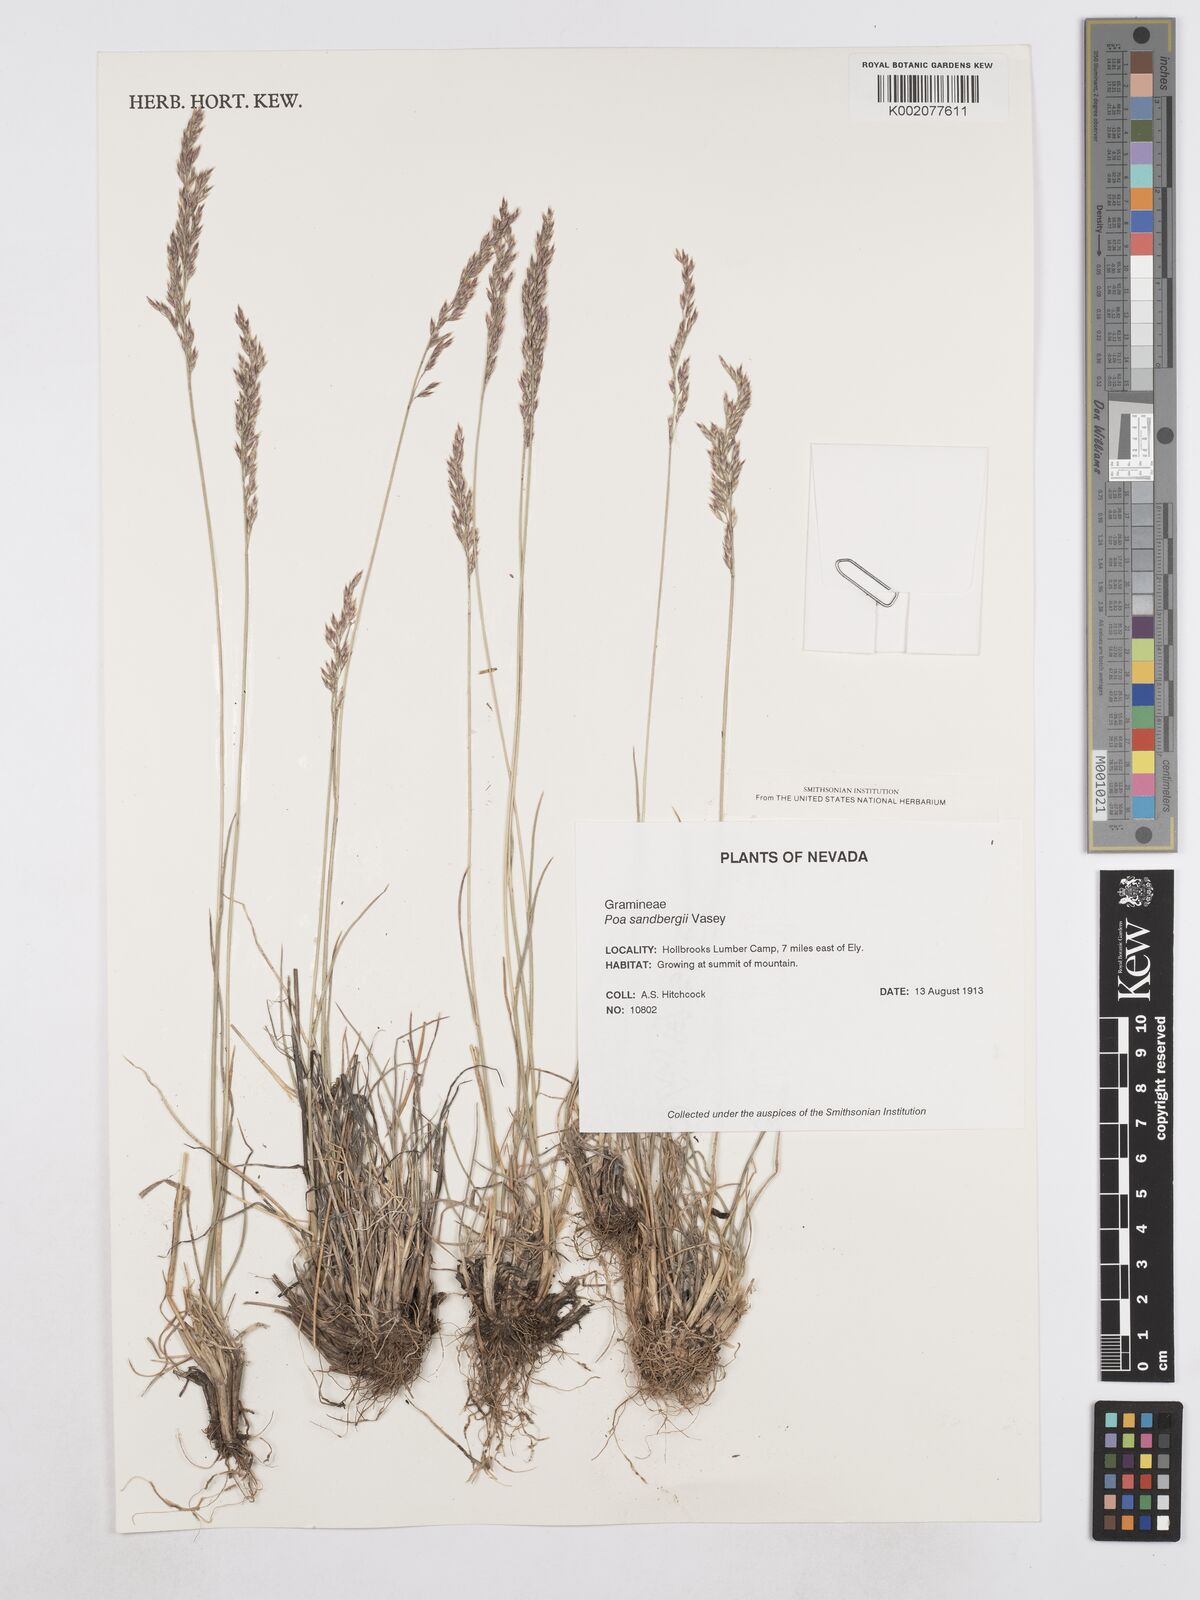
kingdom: Plantae
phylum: Tracheophyta
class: Liliopsida
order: Poales
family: Poaceae
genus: Poa
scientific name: Poa secunda
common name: Sandberg bluegrass
